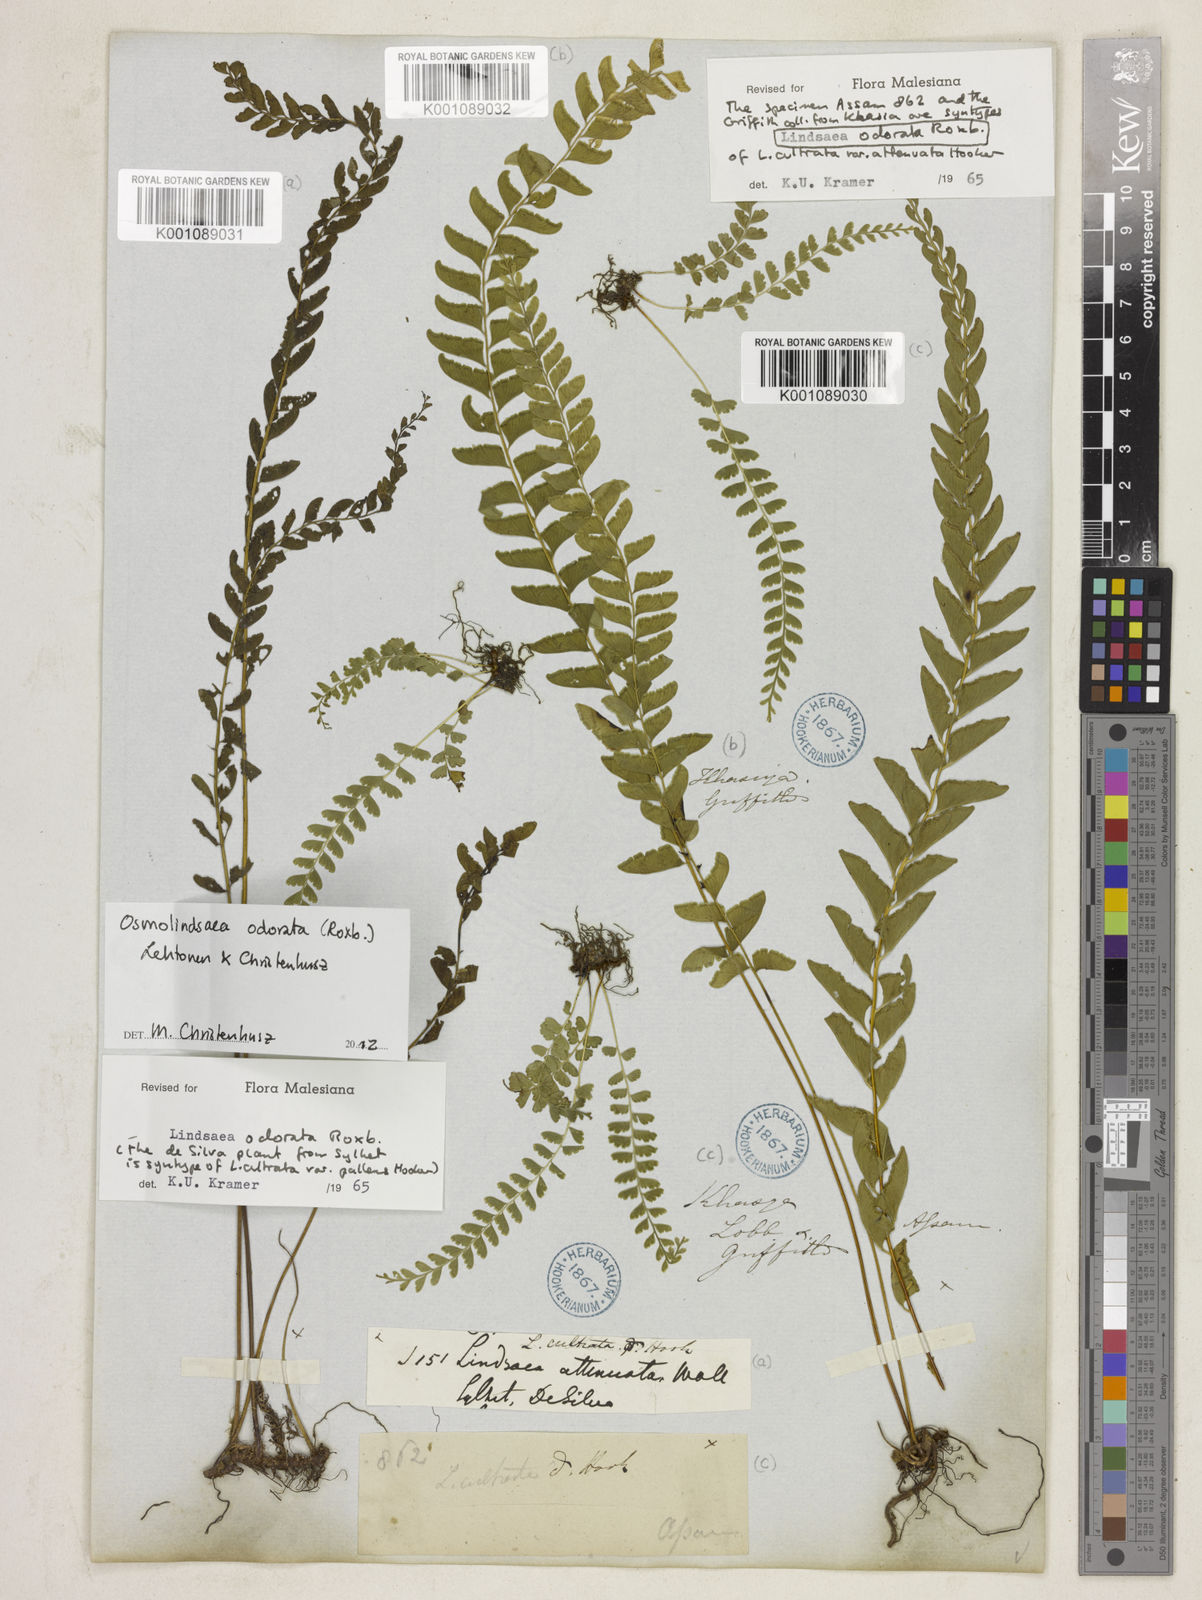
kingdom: Plantae
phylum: Tracheophyta
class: Polypodiopsida
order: Polypodiales
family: Lindsaeaceae
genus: Osmolindsaea
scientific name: Osmolindsaea odorata
